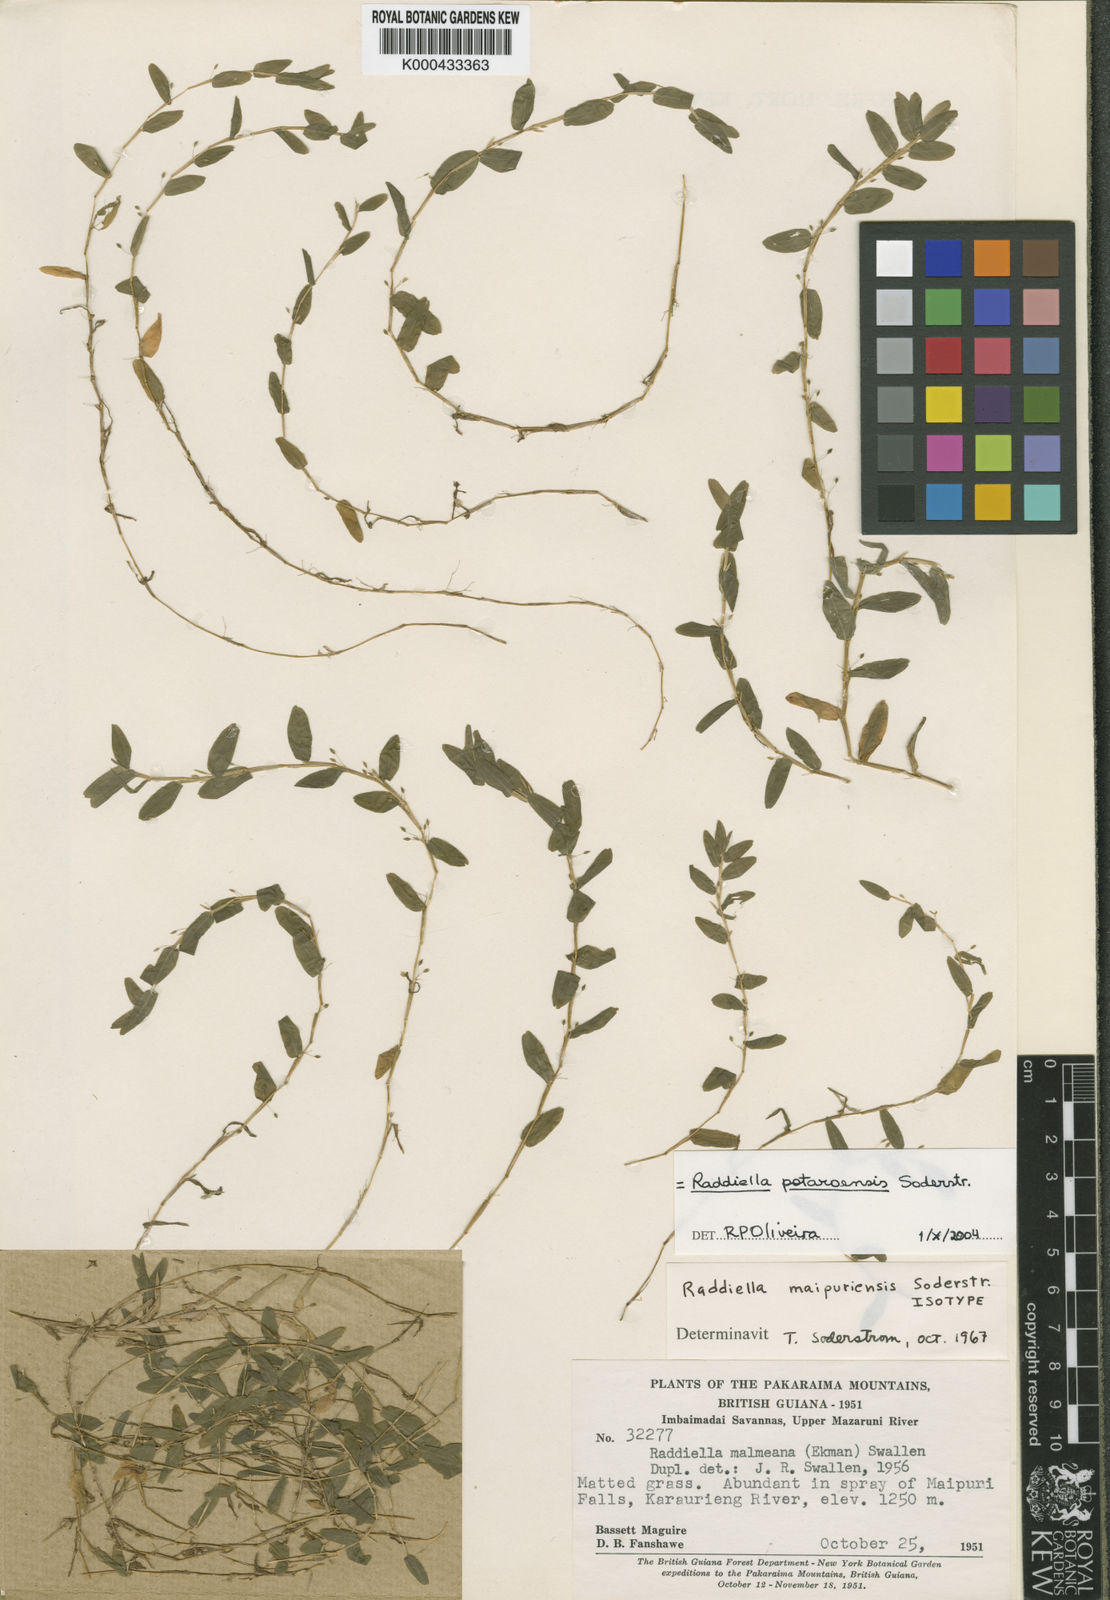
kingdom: Plantae
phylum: Tracheophyta
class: Liliopsida
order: Poales
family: Poaceae
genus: Raddiella
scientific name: Raddiella potaroensis
